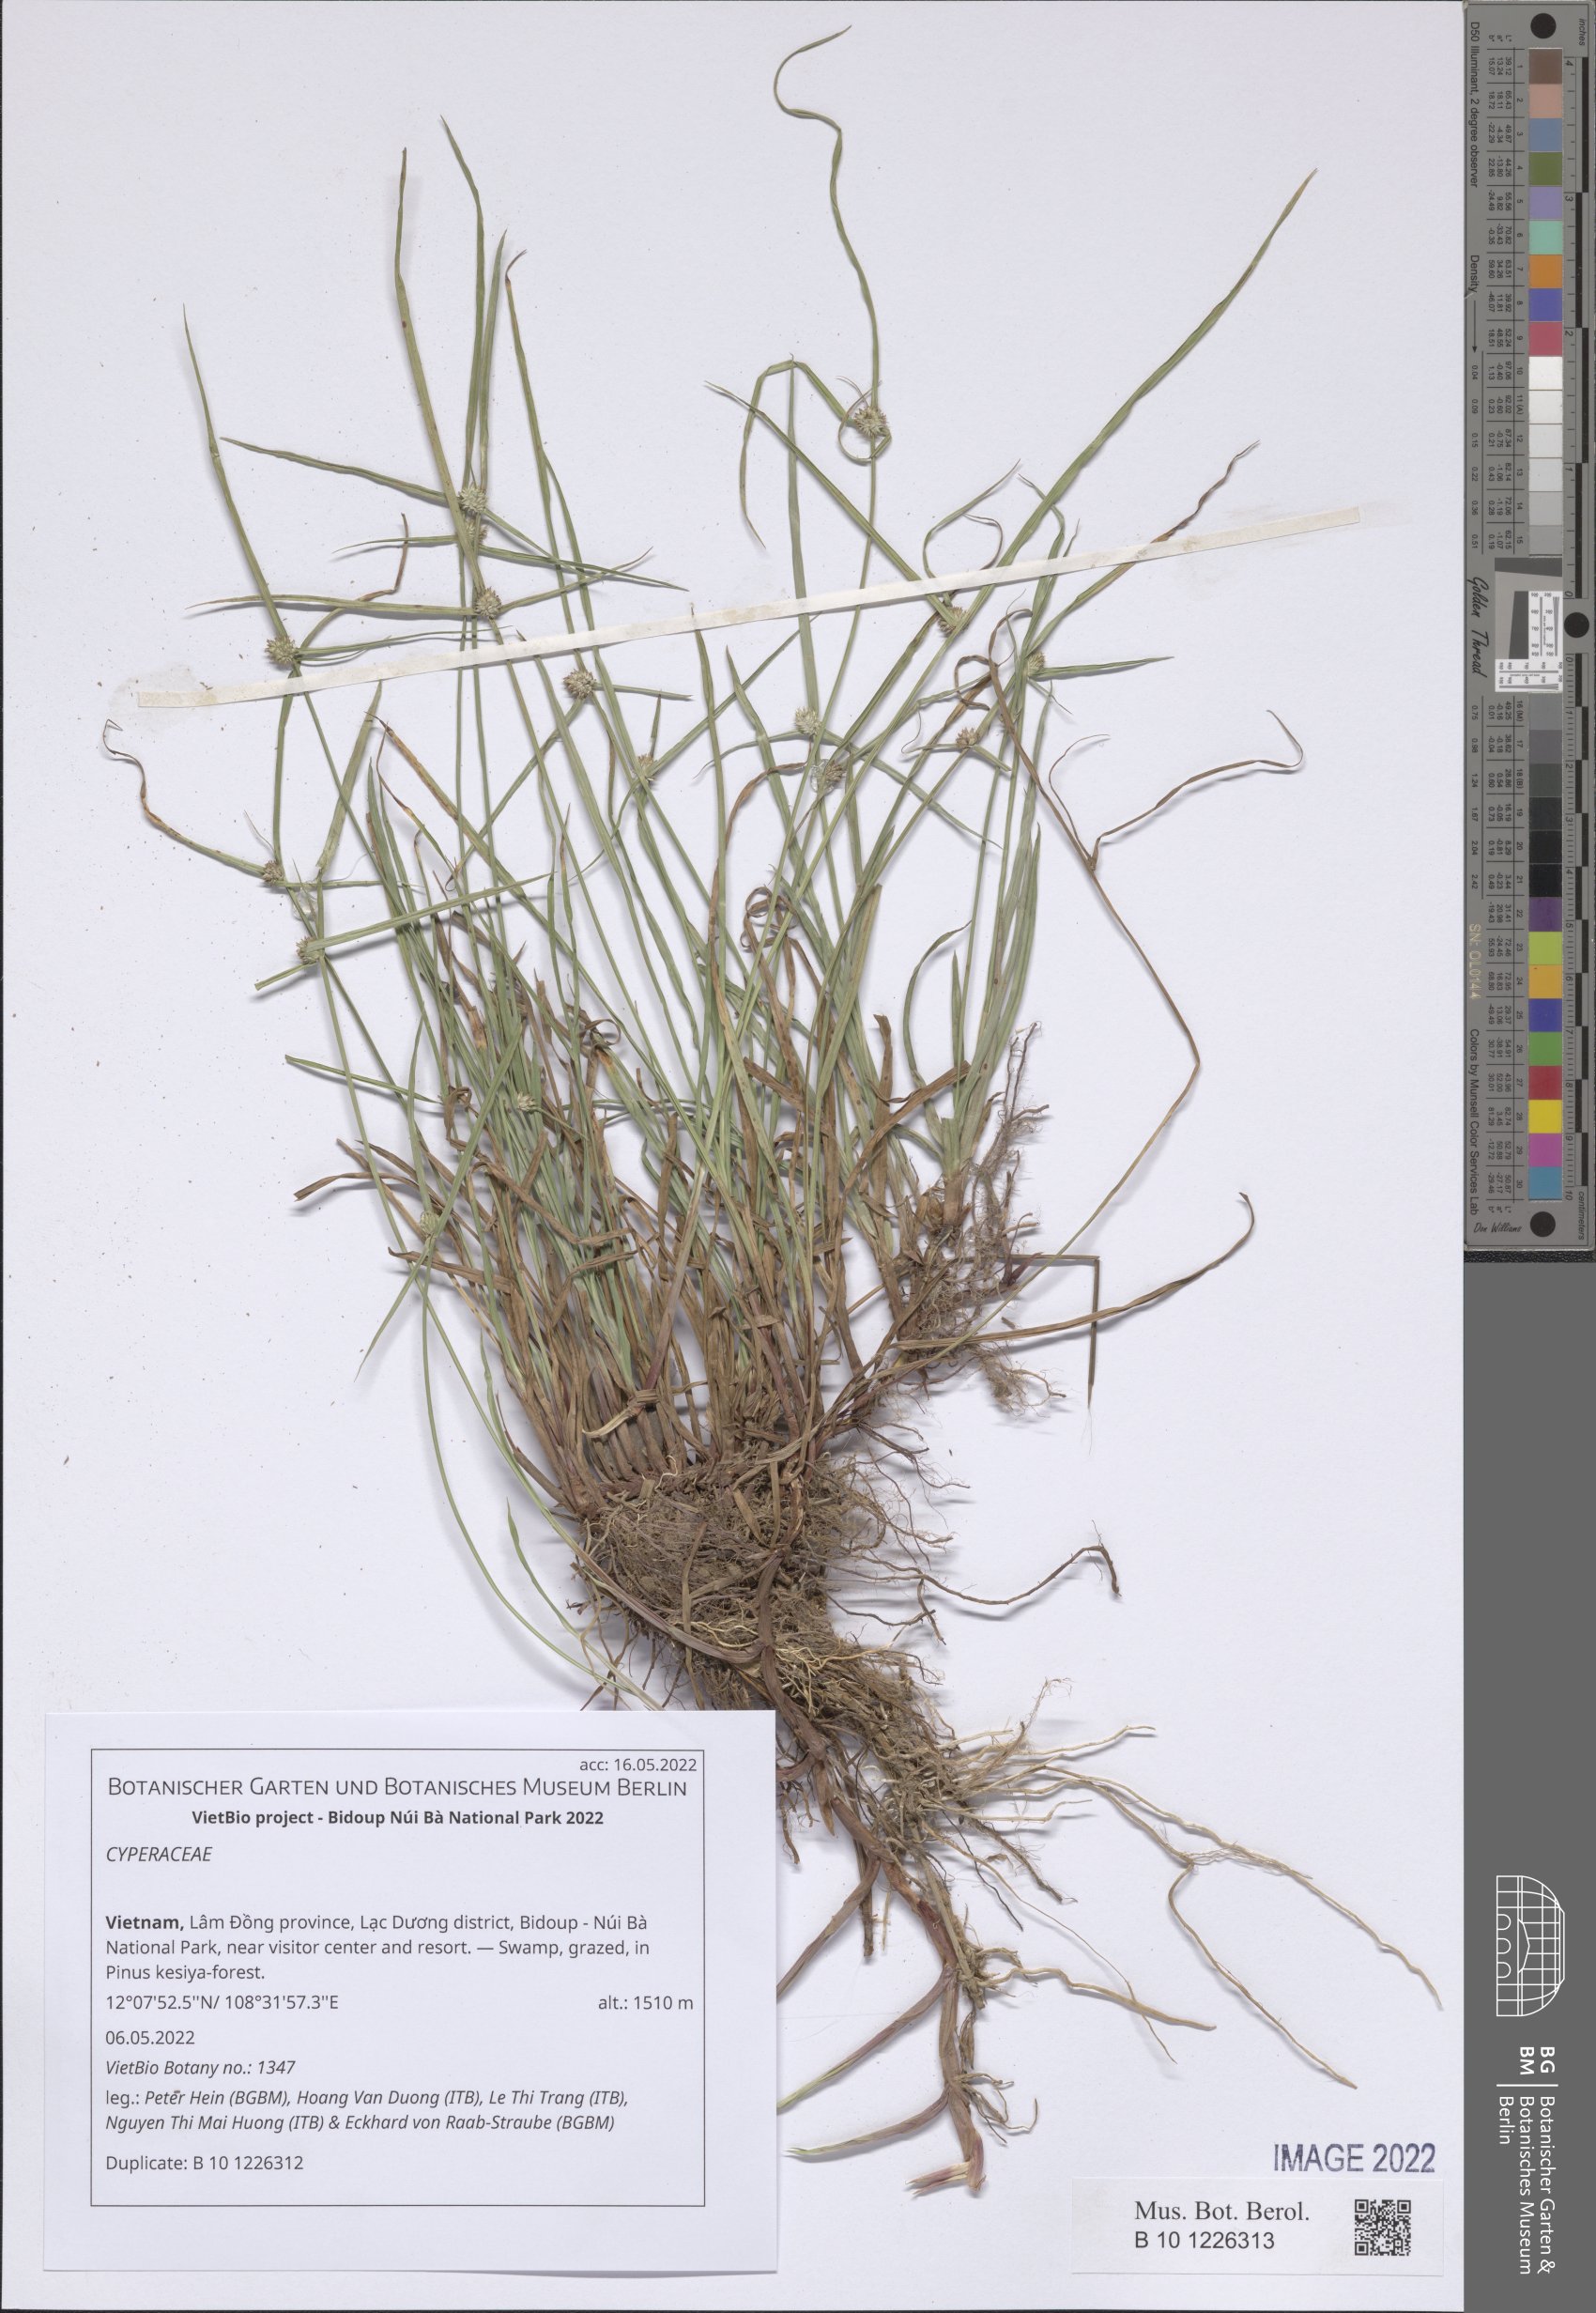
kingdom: Plantae
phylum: Tracheophyta
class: Liliopsida
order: Poales
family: Cyperaceae
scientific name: Cyperaceae
